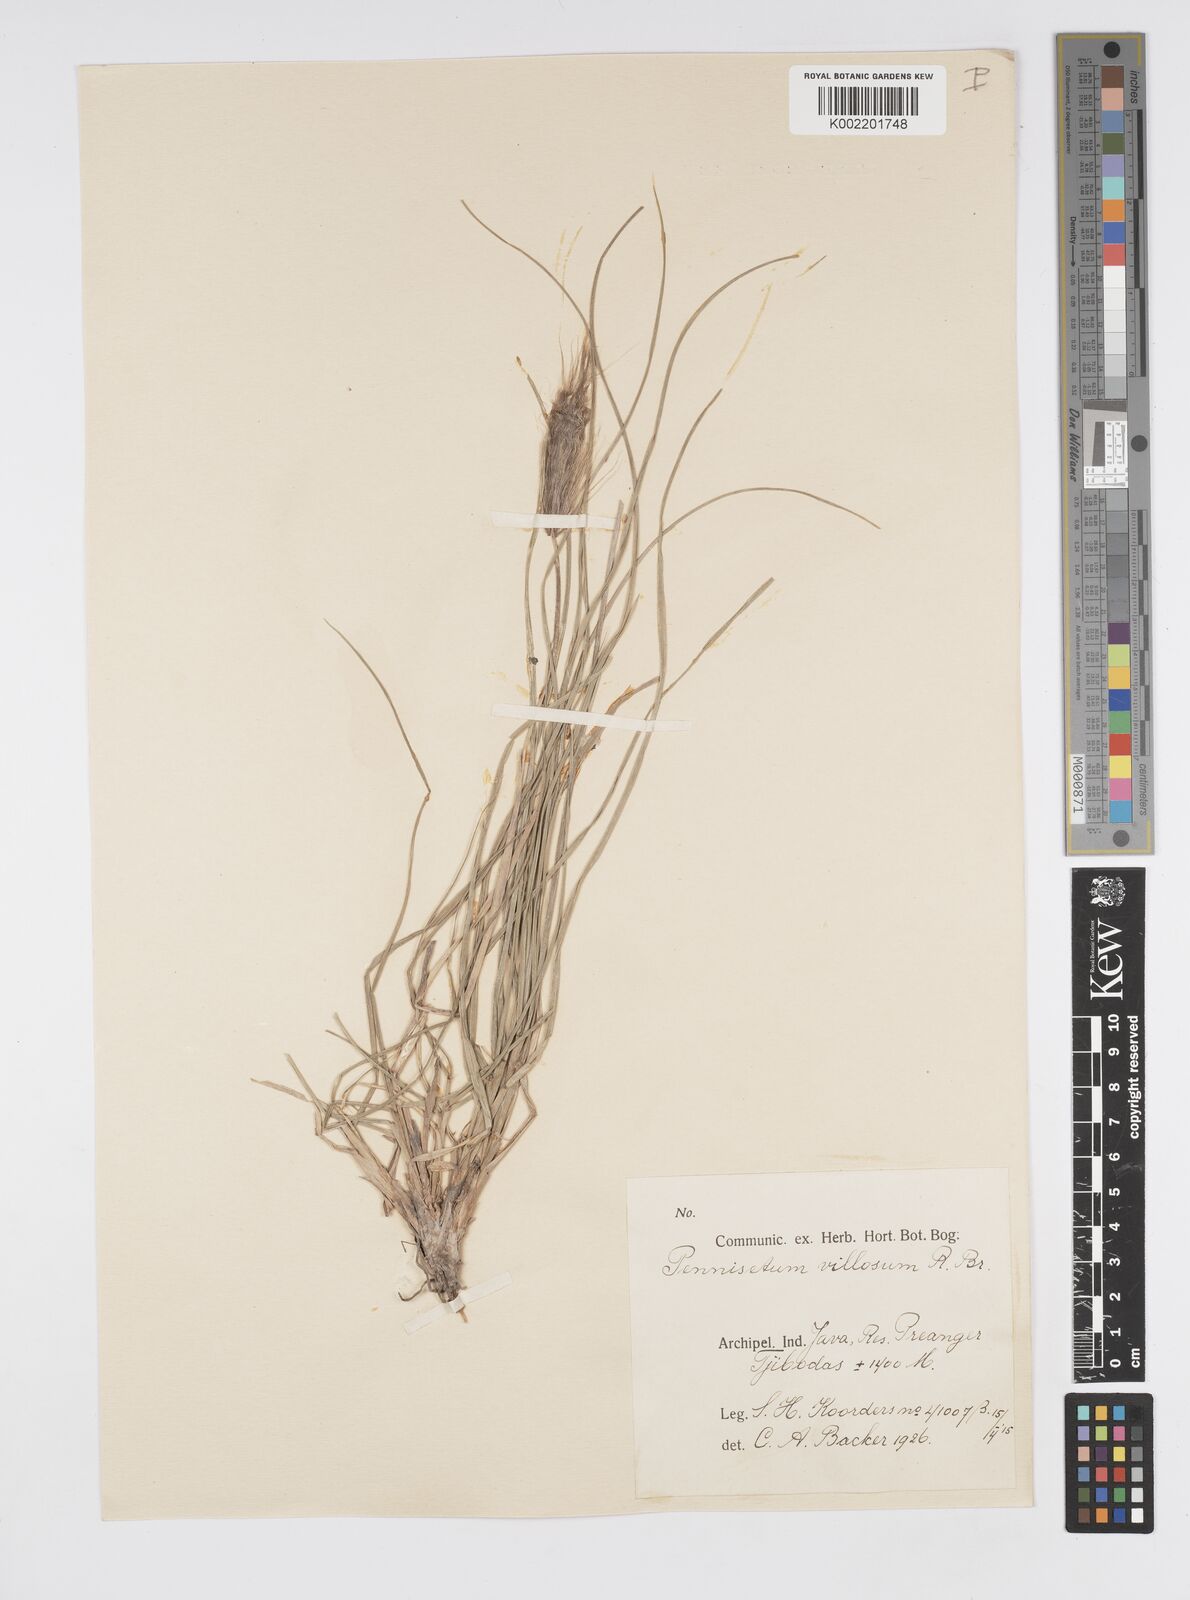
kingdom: Plantae
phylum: Tracheophyta
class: Liliopsida
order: Poales
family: Poaceae
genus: Cenchrus
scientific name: Cenchrus longisetus
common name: Feathertop
